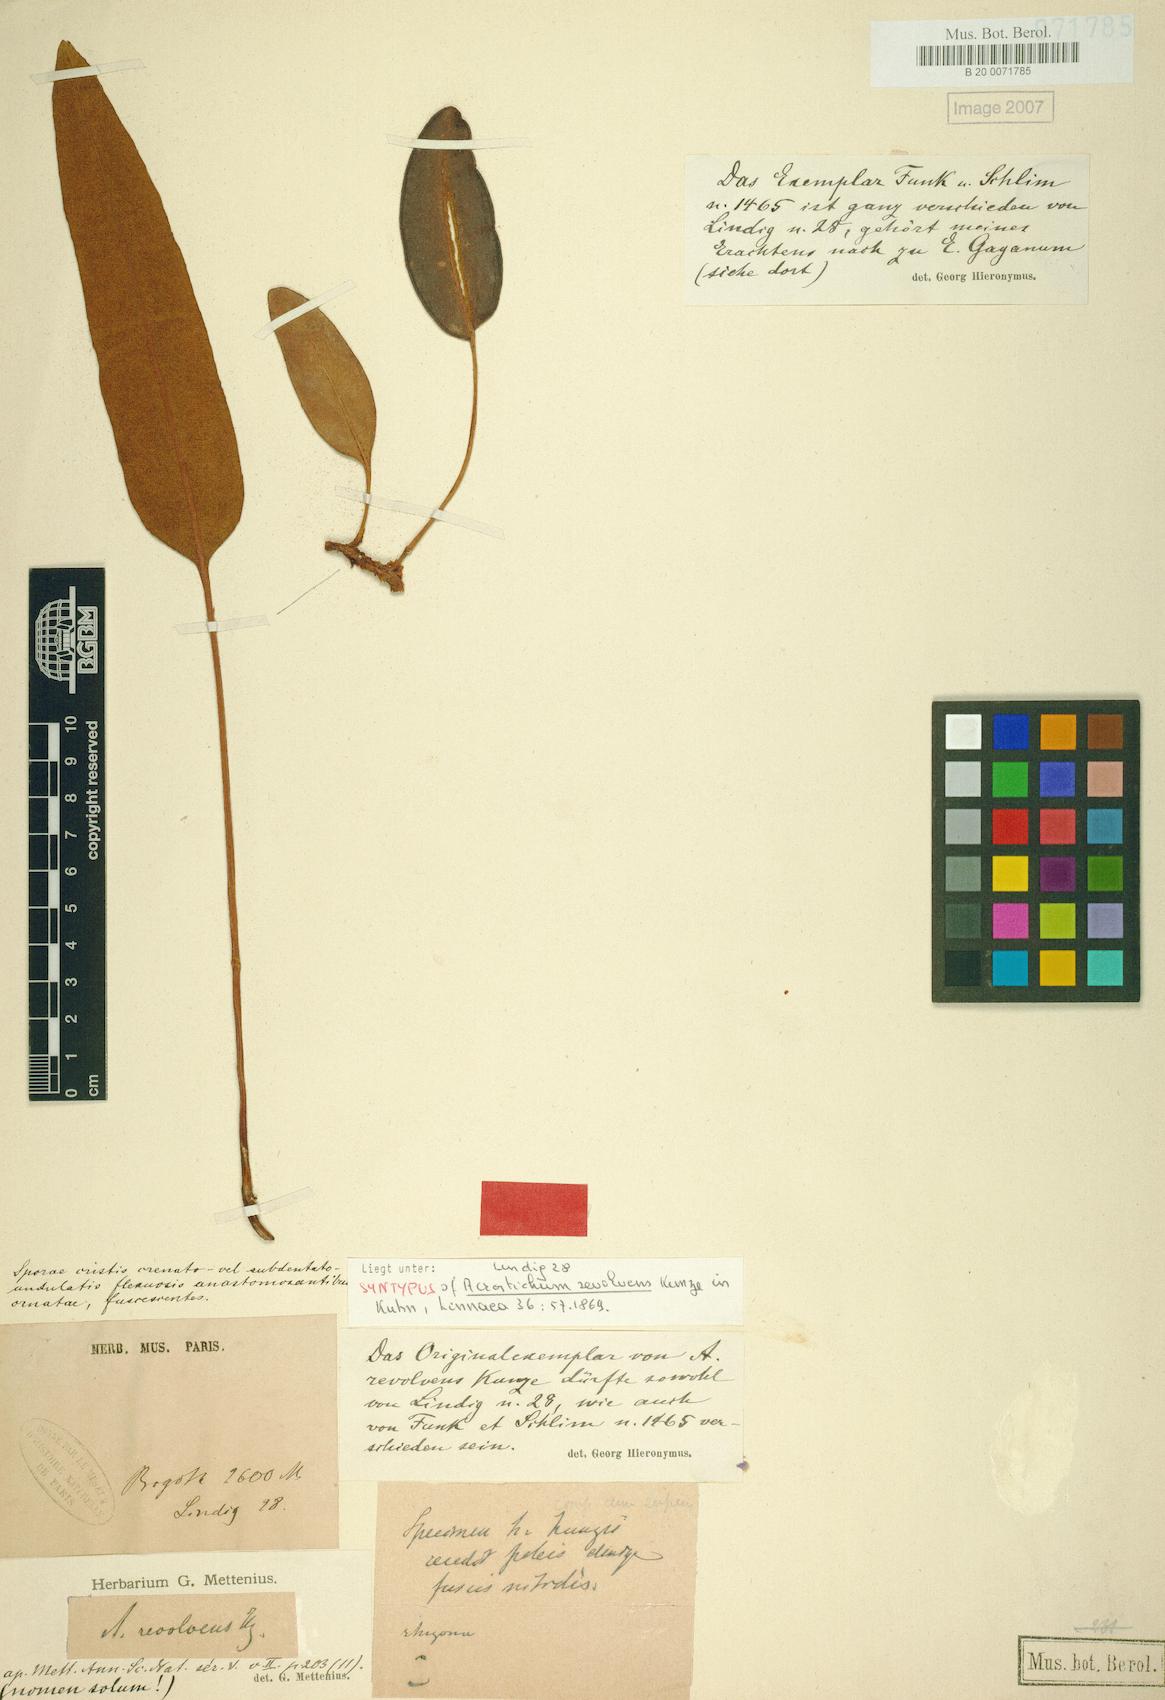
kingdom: Plantae
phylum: Tracheophyta
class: Polypodiopsida
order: Polypodiales
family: Dryopteridaceae
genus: Elaphoglossum
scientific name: Elaphoglossum affine
